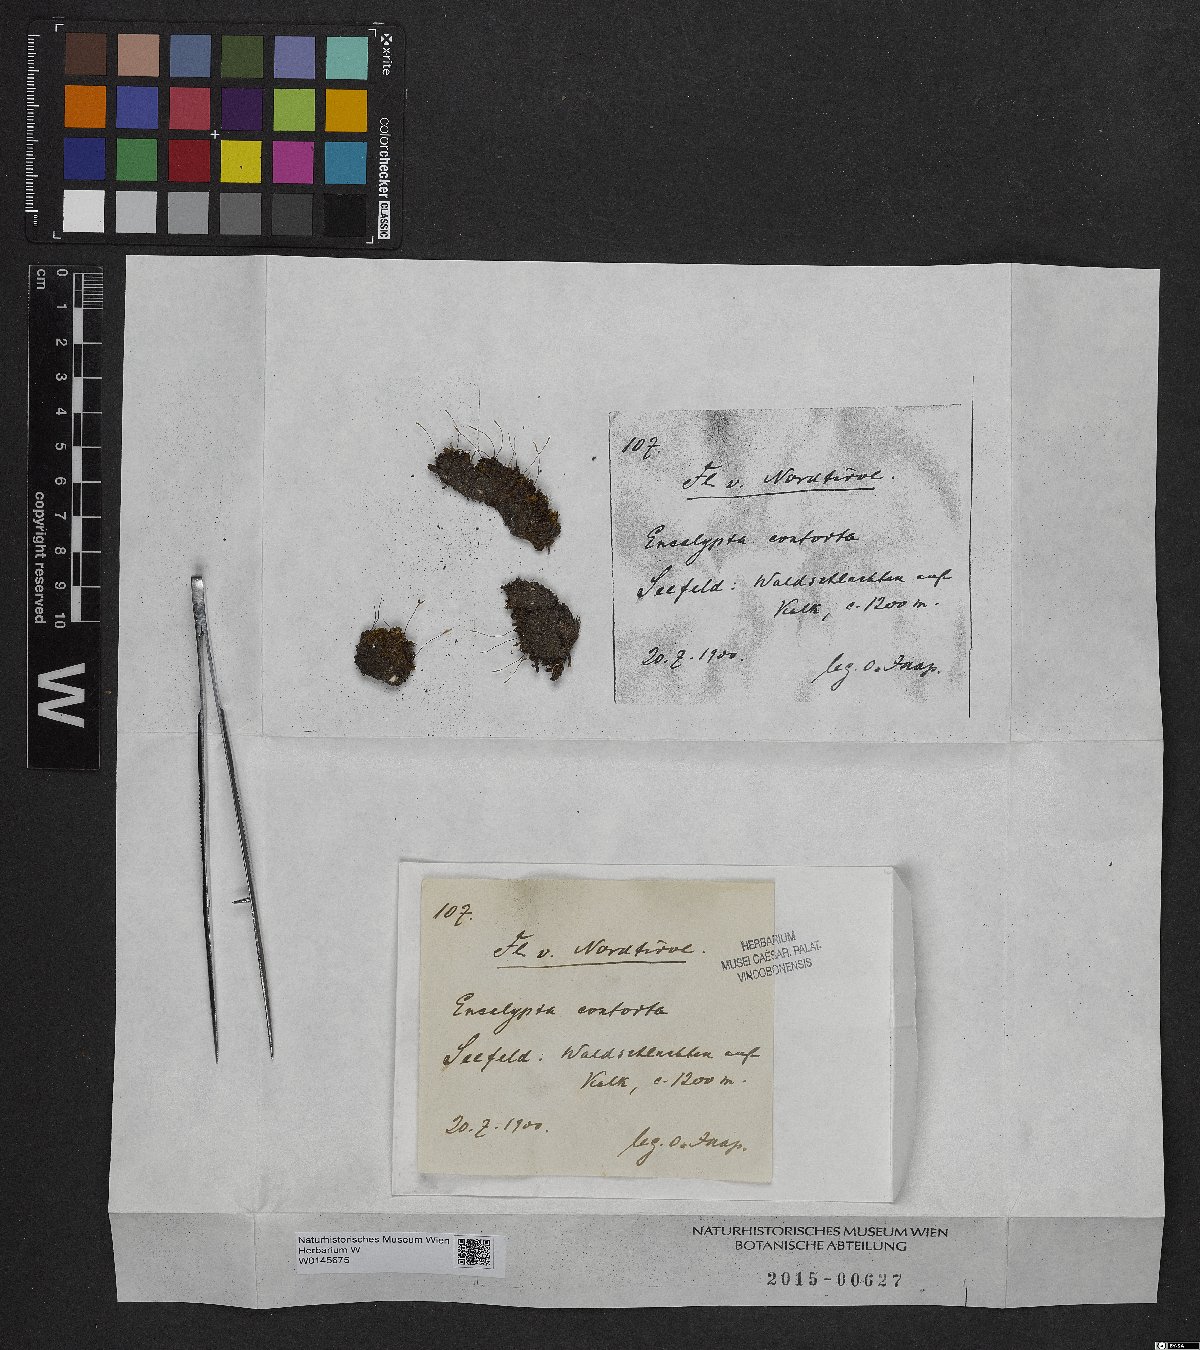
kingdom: Plantae
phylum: Bryophyta
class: Bryopsida
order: Encalyptales
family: Encalyptaceae
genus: Encalypta
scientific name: Encalypta streptocarpa
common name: Spiral extinguisher-moss
